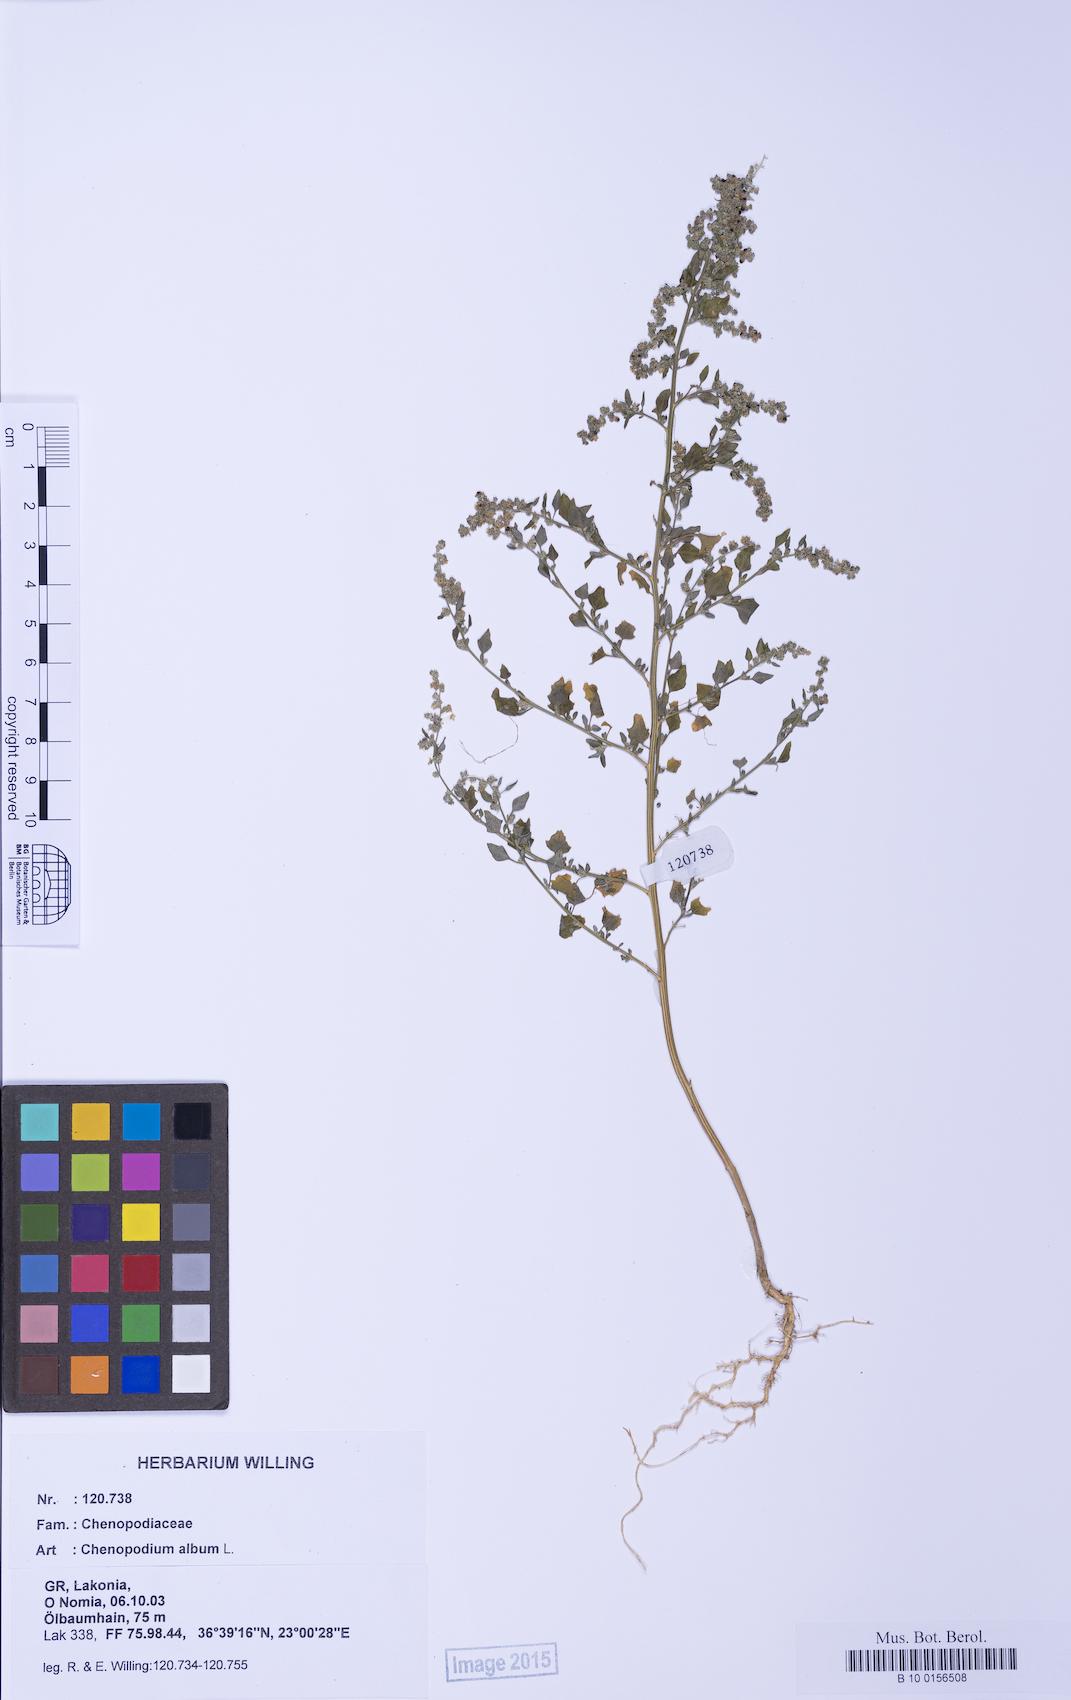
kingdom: Plantae
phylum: Tracheophyta
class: Magnoliopsida
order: Caryophyllales
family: Amaranthaceae
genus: Chenopodium
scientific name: Chenopodium opulifolium
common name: Grey goosefoot
